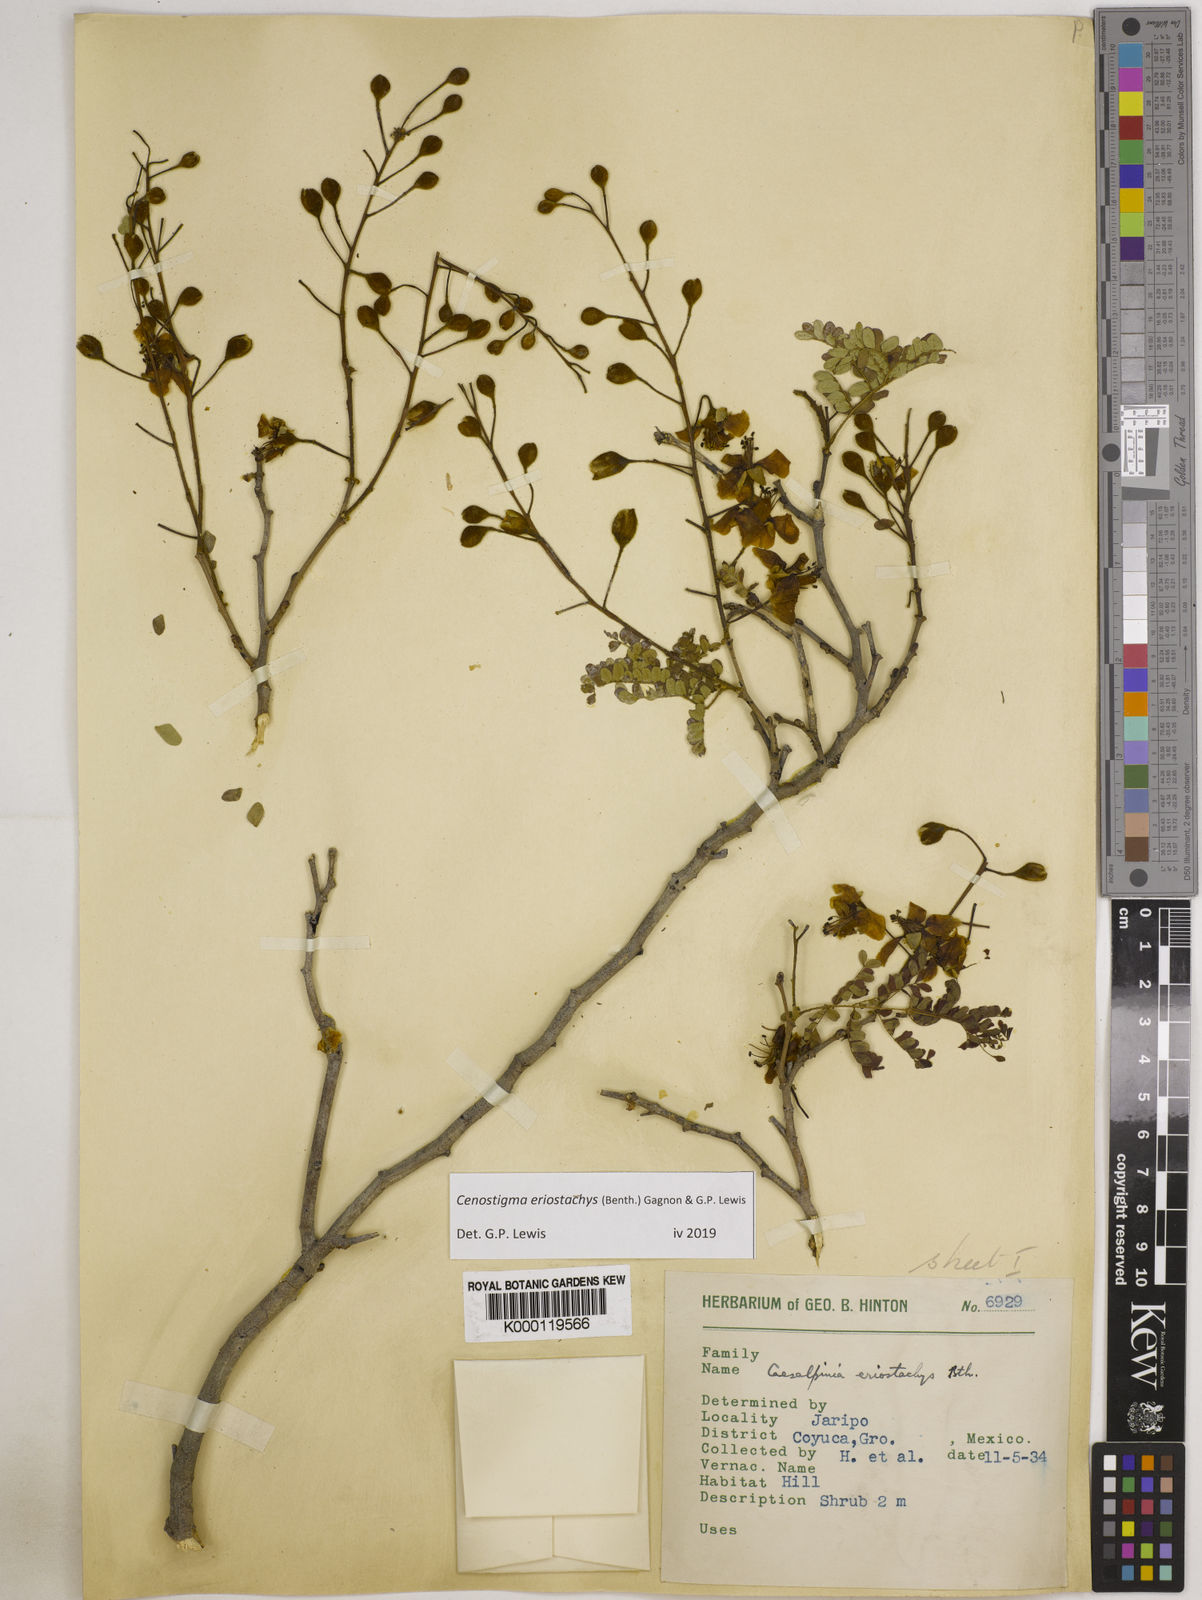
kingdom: Plantae
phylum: Tracheophyta
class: Magnoliopsida
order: Fabales
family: Fabaceae
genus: Cenostigma
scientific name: Cenostigma eriostachys
